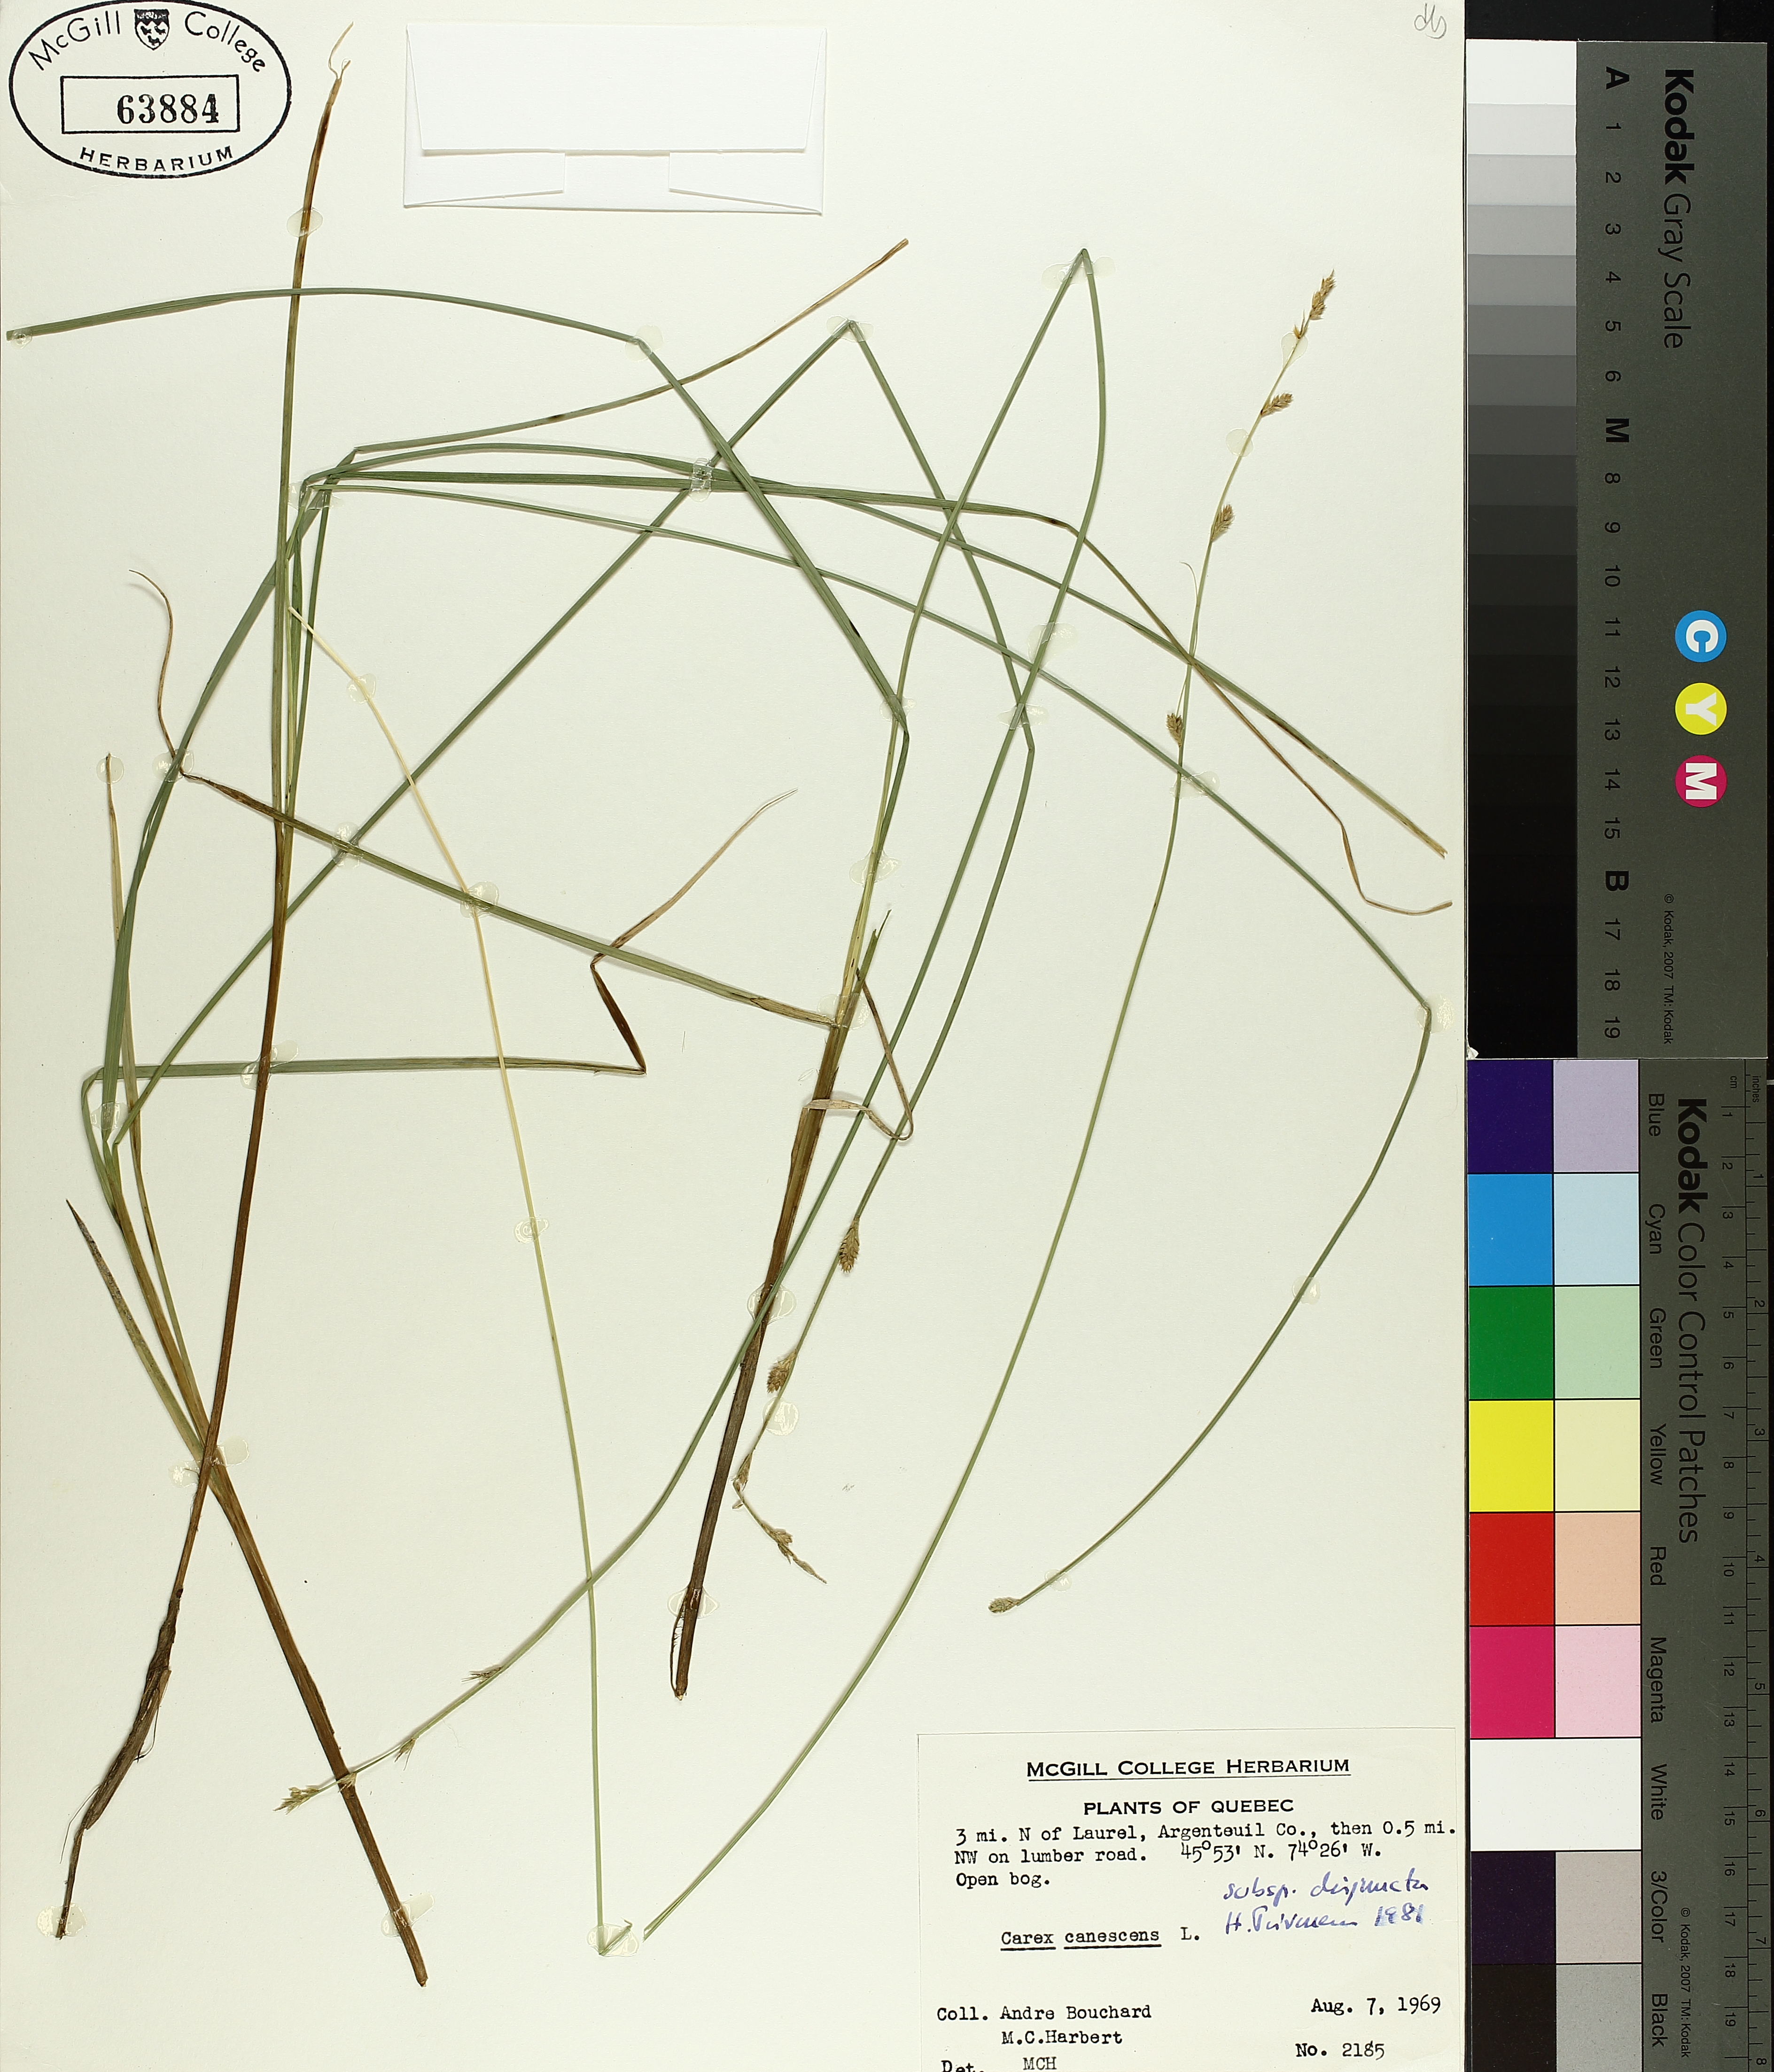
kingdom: Plantae
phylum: Tracheophyta
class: Liliopsida
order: Poales
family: Cyperaceae
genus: Carex
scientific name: Carex canescens
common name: White sedge
